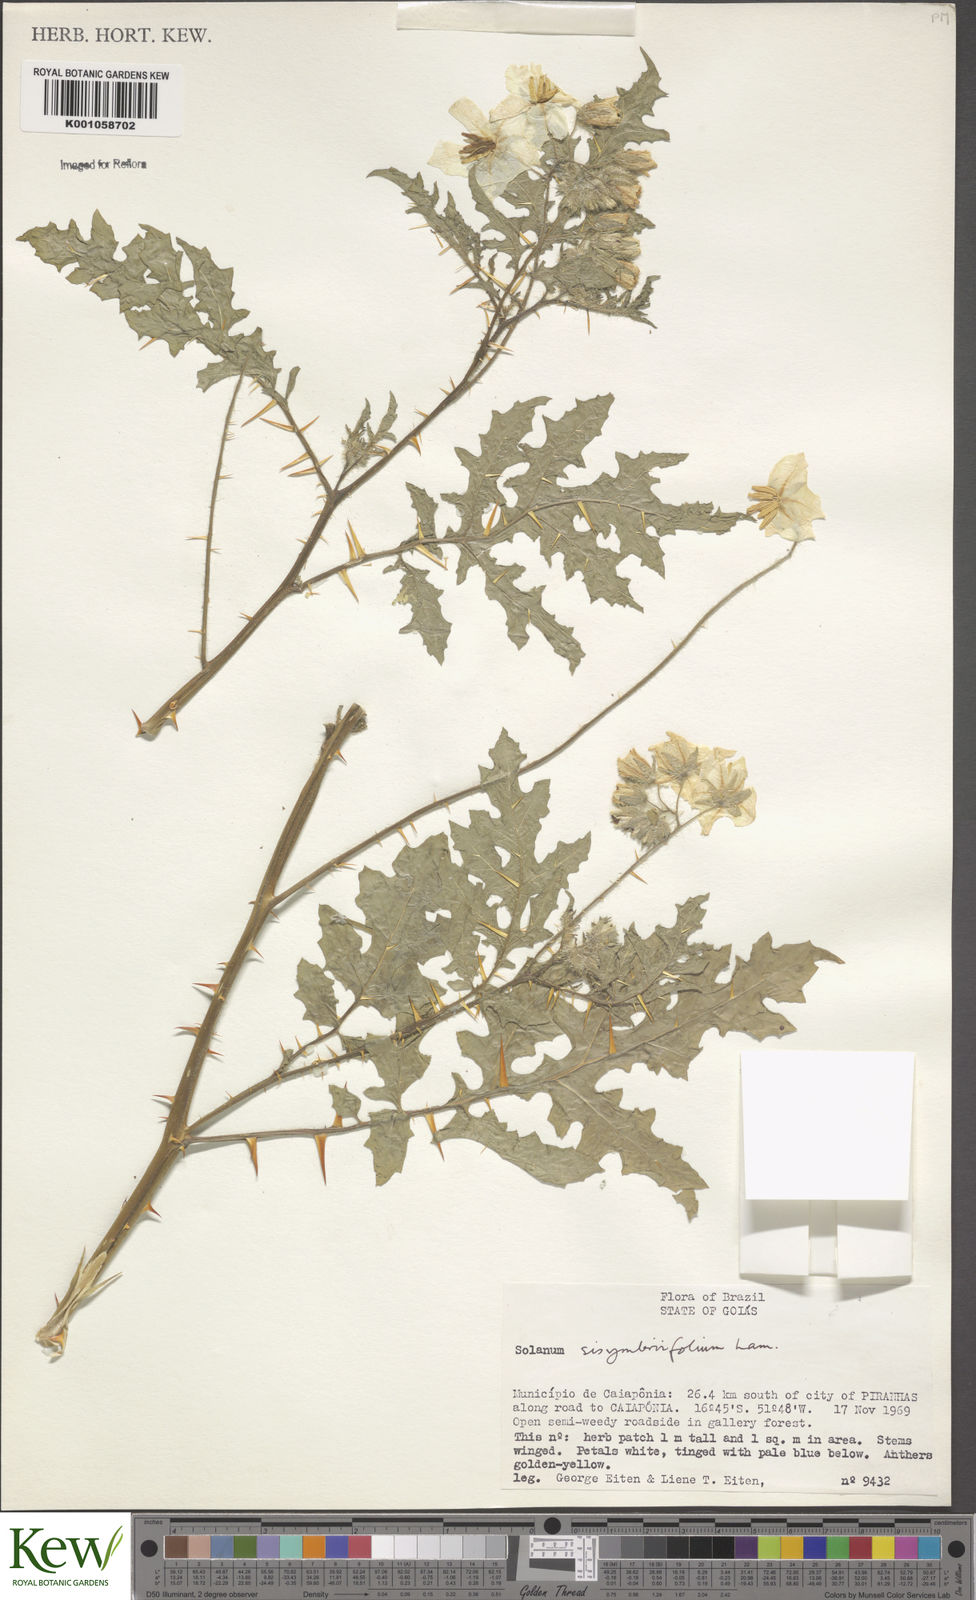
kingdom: Plantae
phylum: Tracheophyta
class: Magnoliopsida
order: Solanales
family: Solanaceae
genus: Solanum
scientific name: Solanum sisymbriifolium
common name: Red buffalo-bur
